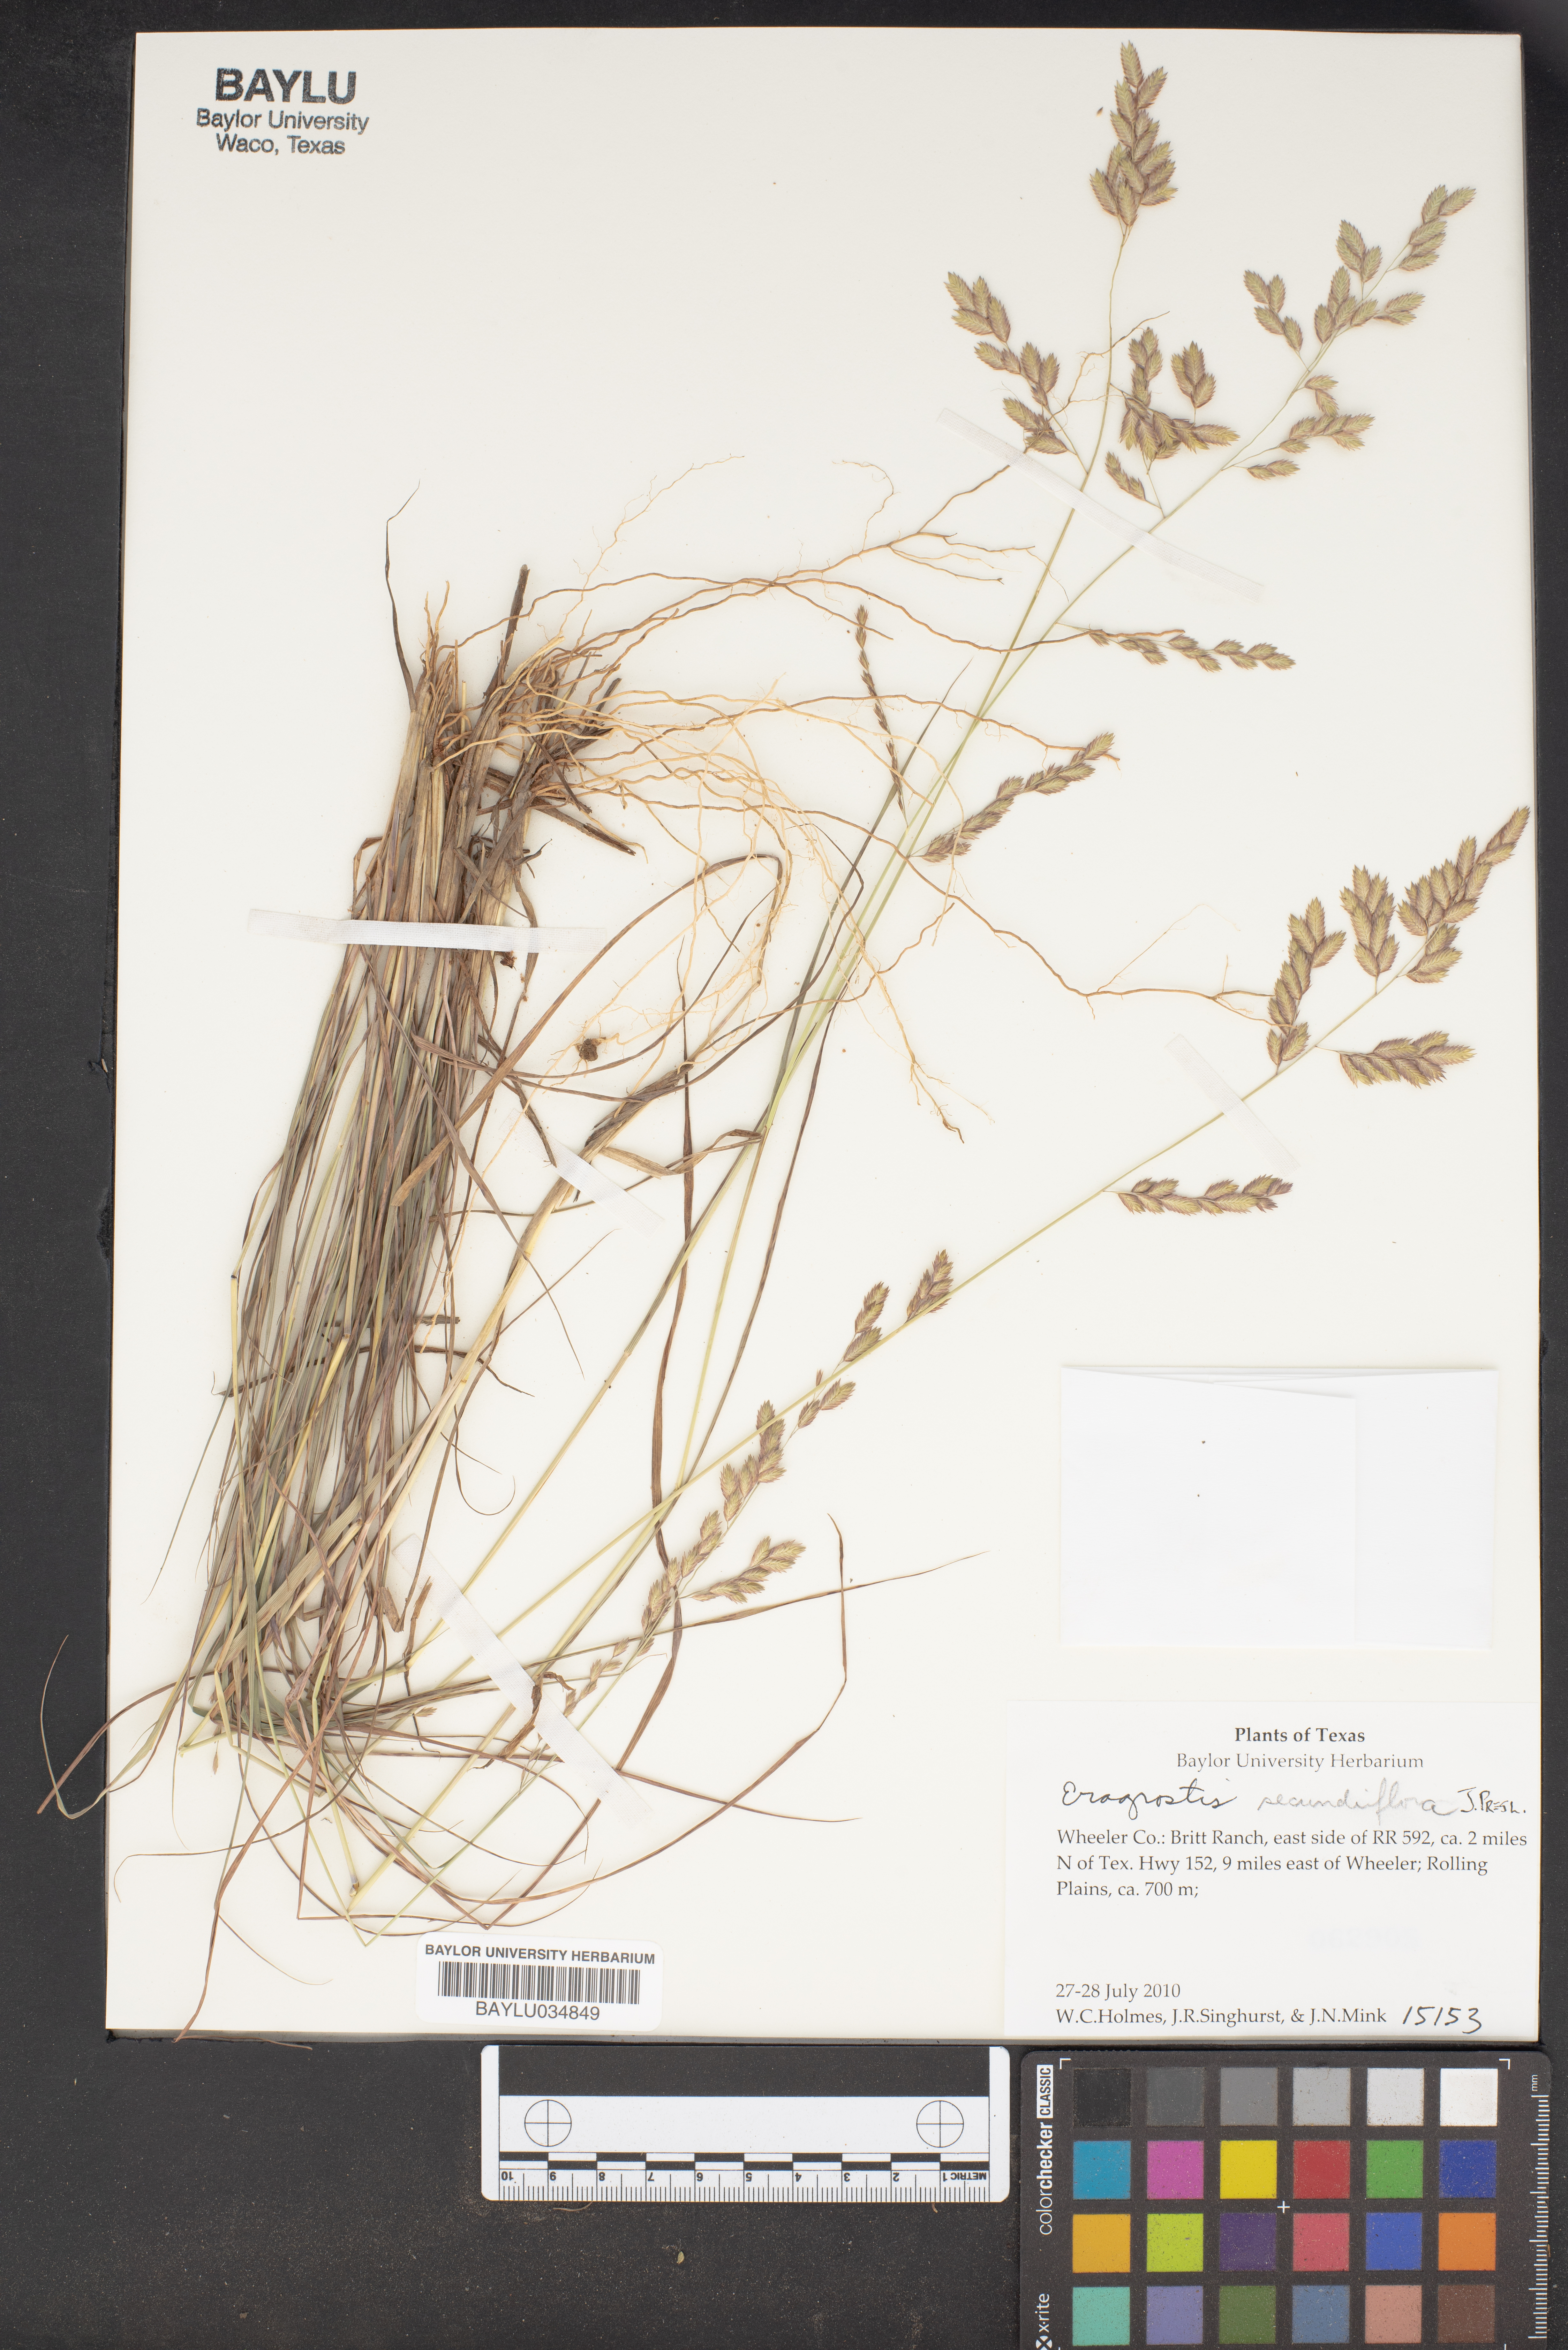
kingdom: Plantae
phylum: Tracheophyta
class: Liliopsida
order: Poales
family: Poaceae
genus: Eragrostis
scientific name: Eragrostis mexicana
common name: Mexican love grass
